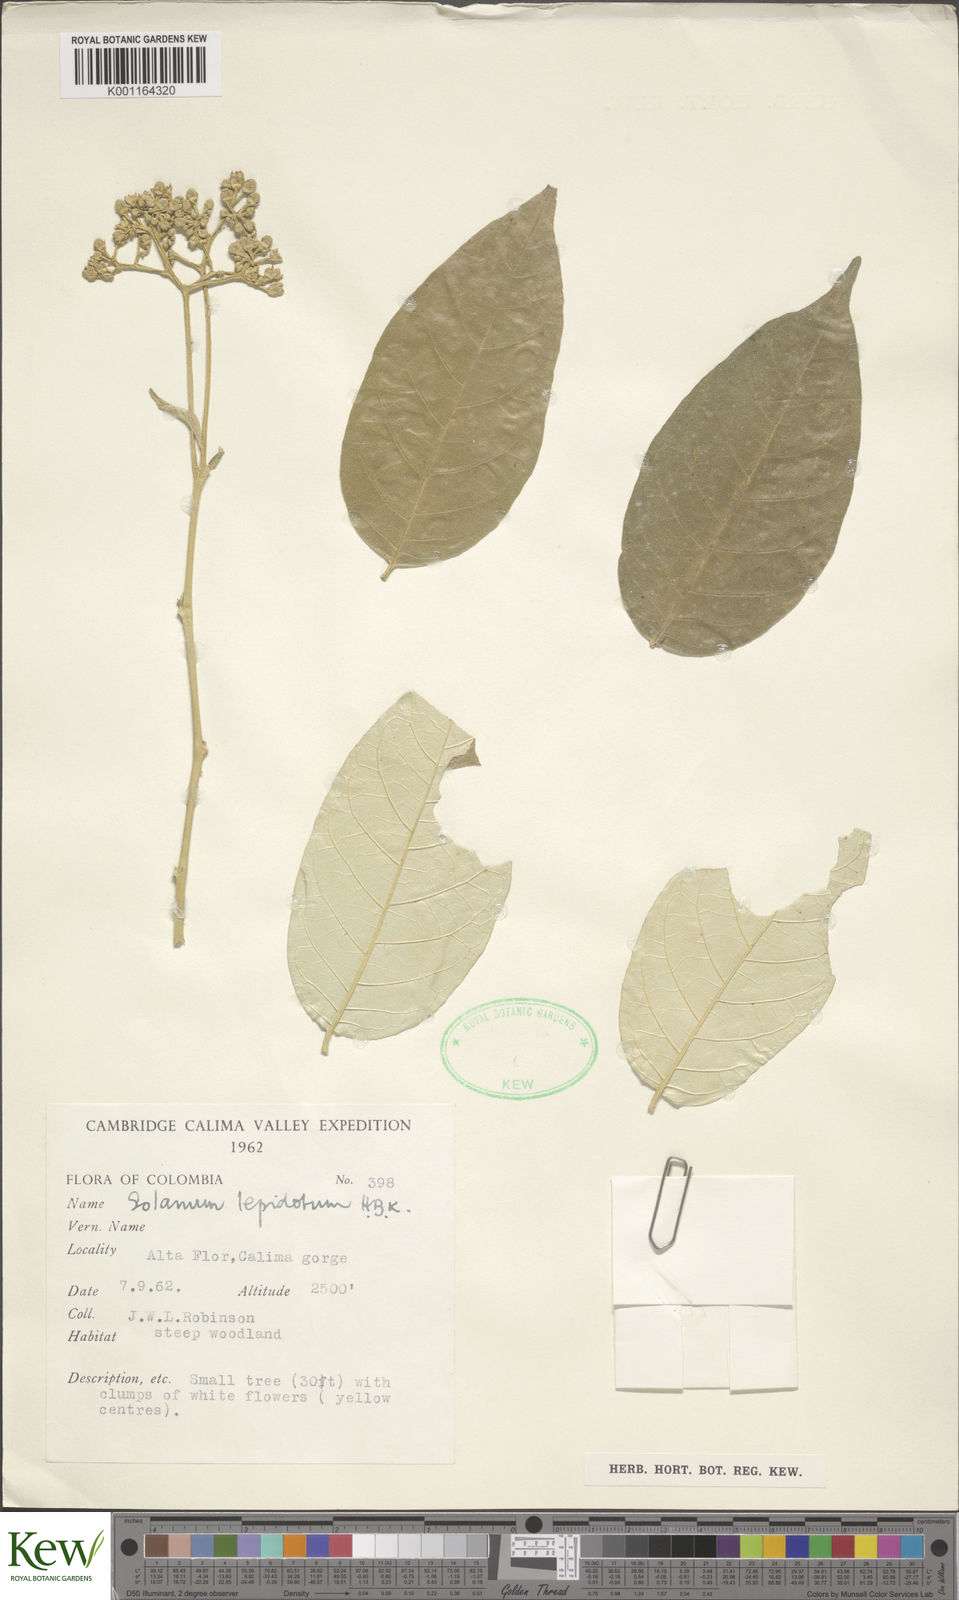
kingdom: Plantae
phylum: Tracheophyta
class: Magnoliopsida
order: Solanales
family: Solanaceae
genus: Solanum
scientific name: Solanum lepidotum
